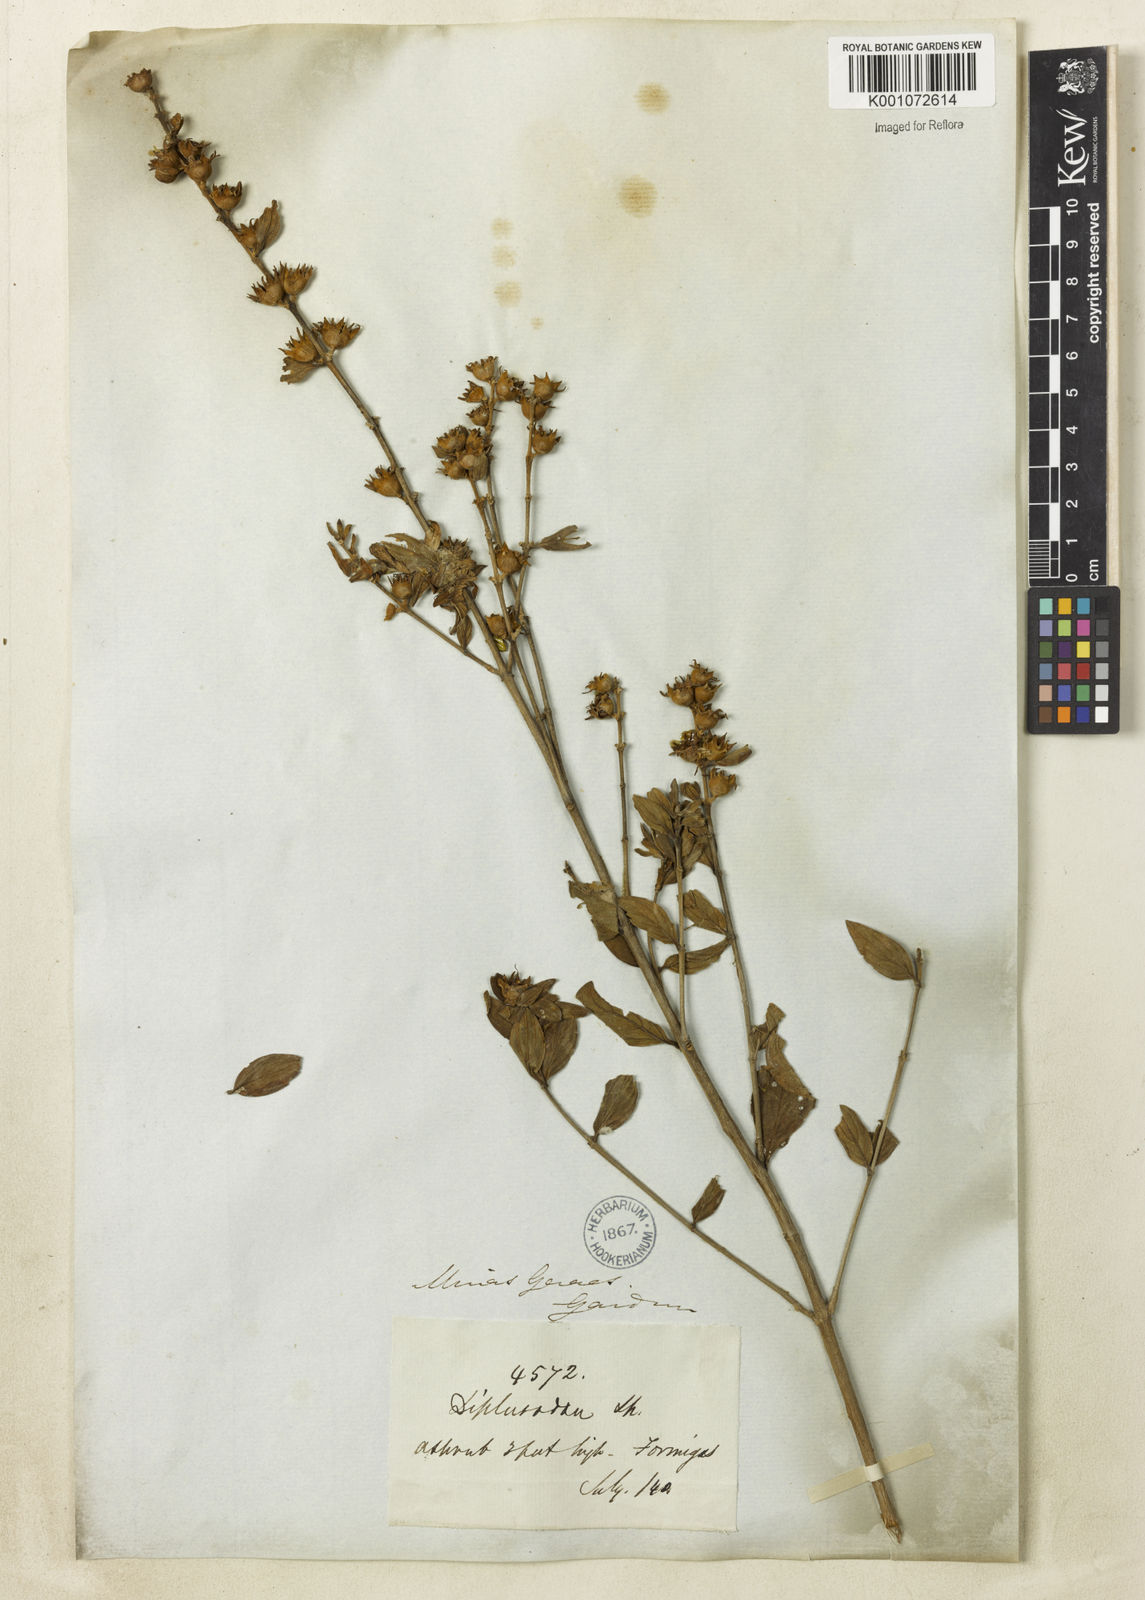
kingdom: Plantae
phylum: Tracheophyta
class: Magnoliopsida
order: Myrtales
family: Lythraceae
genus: Diplusodon
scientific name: Diplusodon lanceolatus
